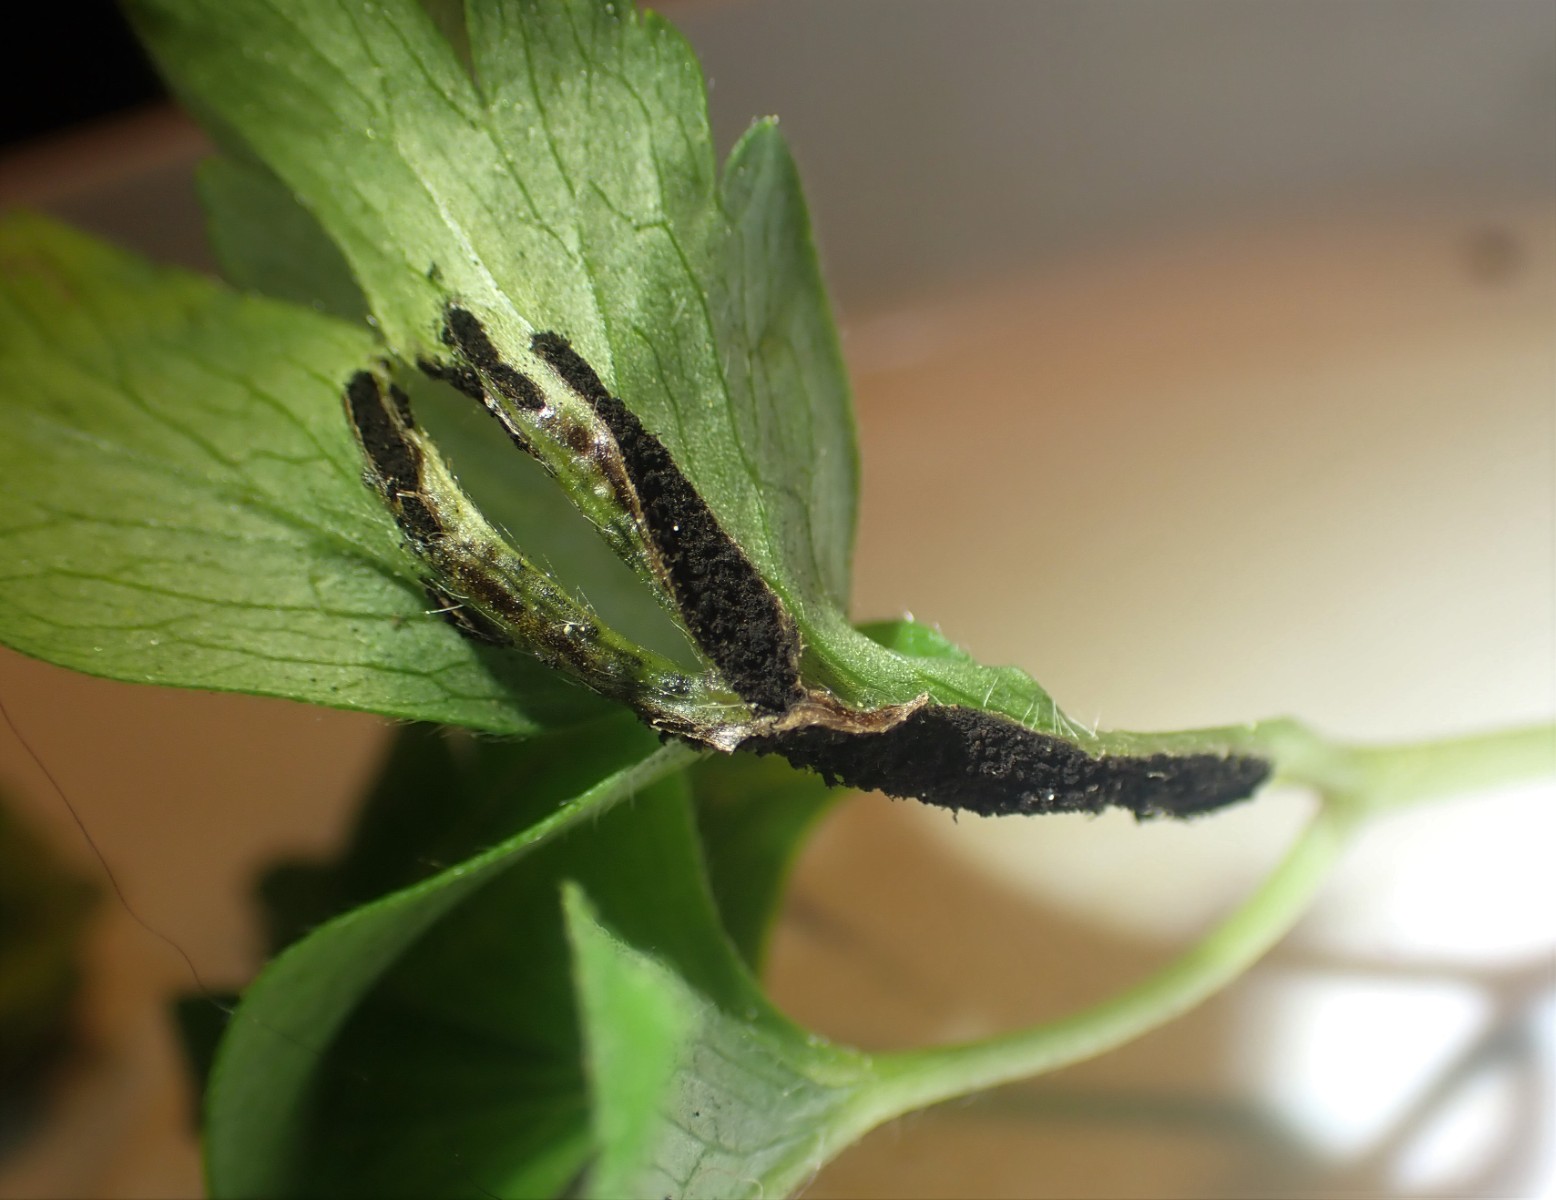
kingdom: Fungi
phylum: Basidiomycota
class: Ustilaginomycetes
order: Urocystidales
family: Urocystidaceae
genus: Urocystis
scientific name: Urocystis anemones
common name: anemone-brand
